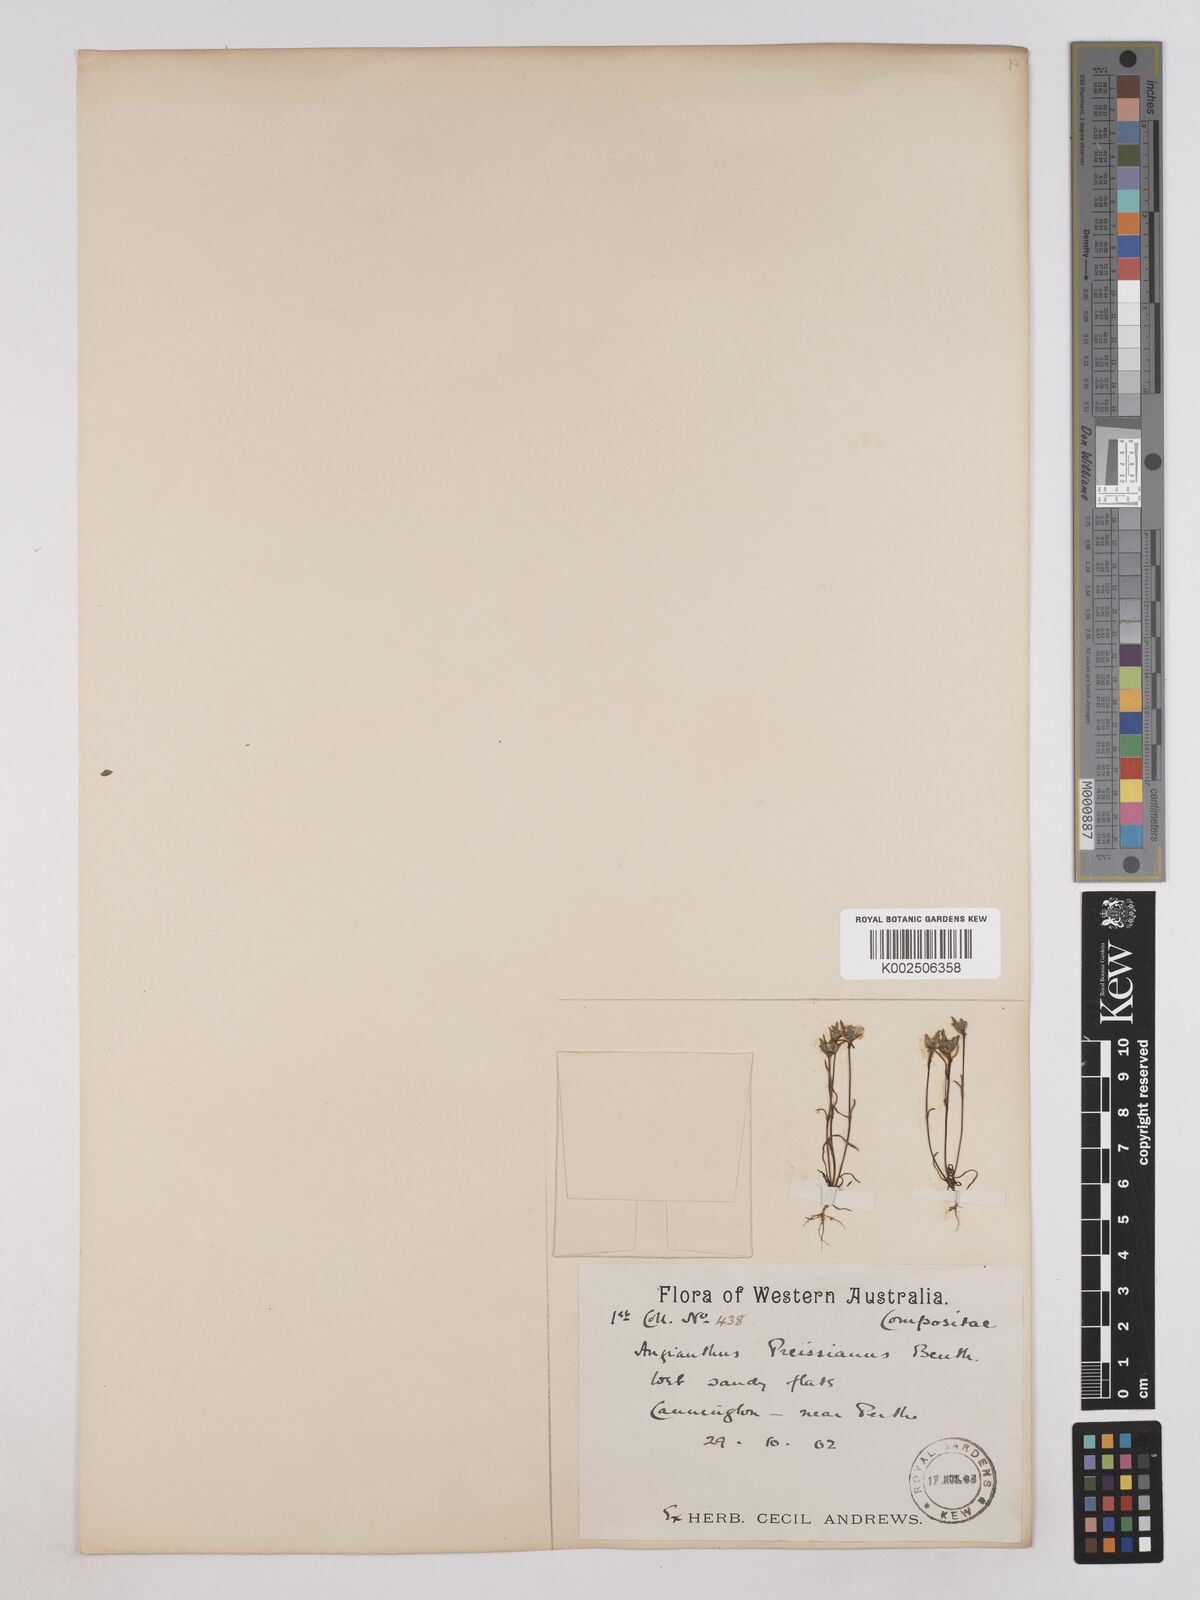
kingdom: Plantae
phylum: Tracheophyta
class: Magnoliopsida
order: Asterales
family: Asteraceae
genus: Angianthus
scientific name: Angianthus preissianus
